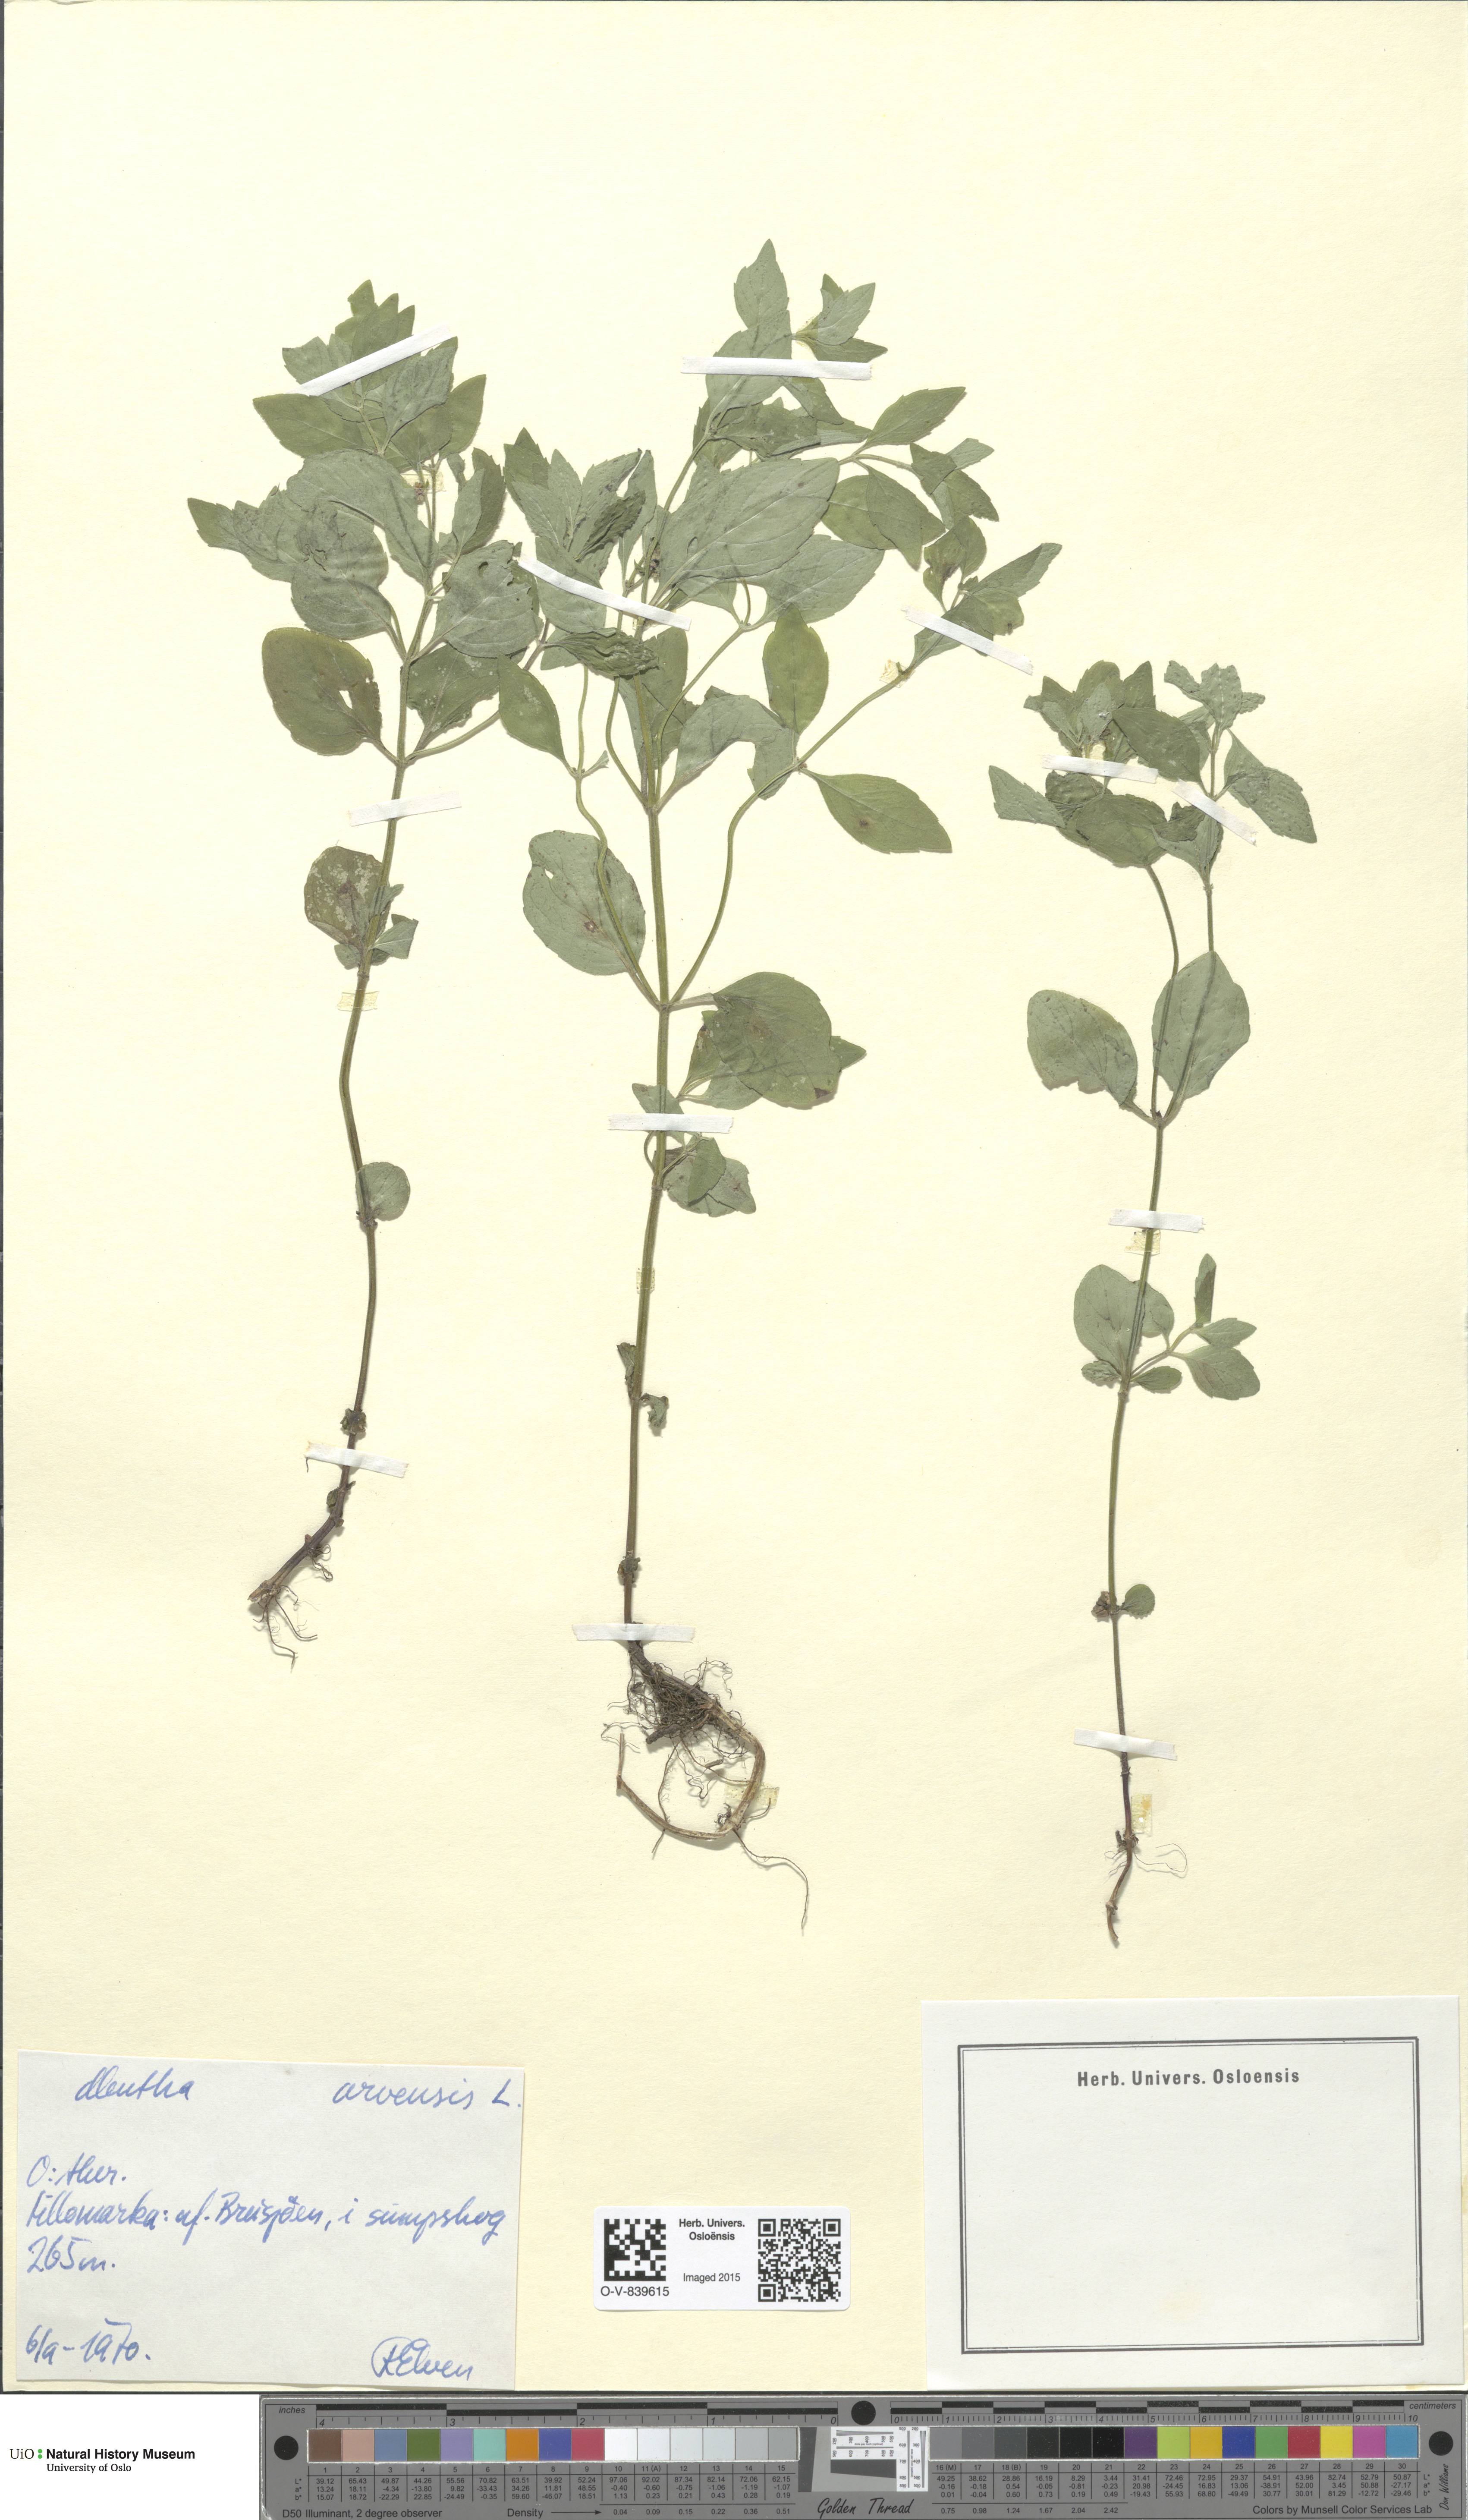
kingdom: Plantae
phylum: Tracheophyta
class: Magnoliopsida
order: Lamiales
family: Lamiaceae
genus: Mentha
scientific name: Mentha arvensis
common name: Corn mint
